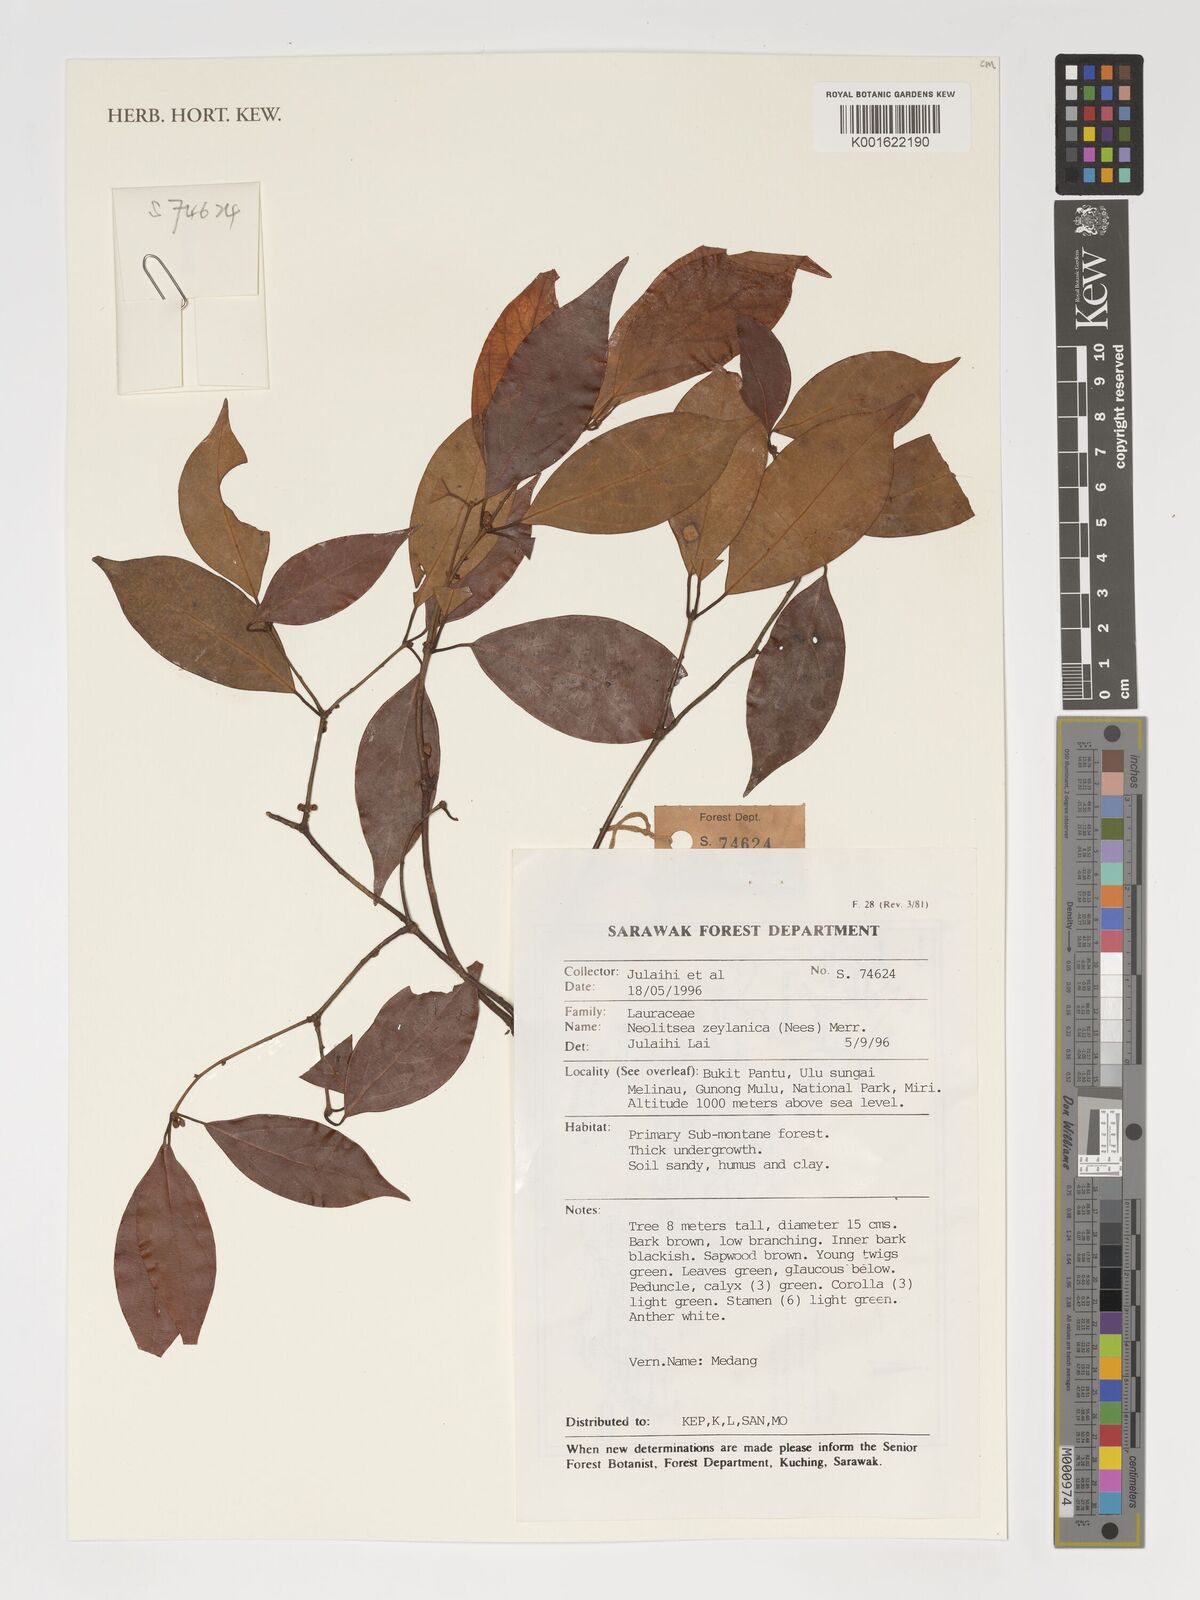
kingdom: Plantae
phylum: Tracheophyta
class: Magnoliopsida
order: Laurales
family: Lauraceae
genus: Neolitsea
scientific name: Neolitsea foliosa
